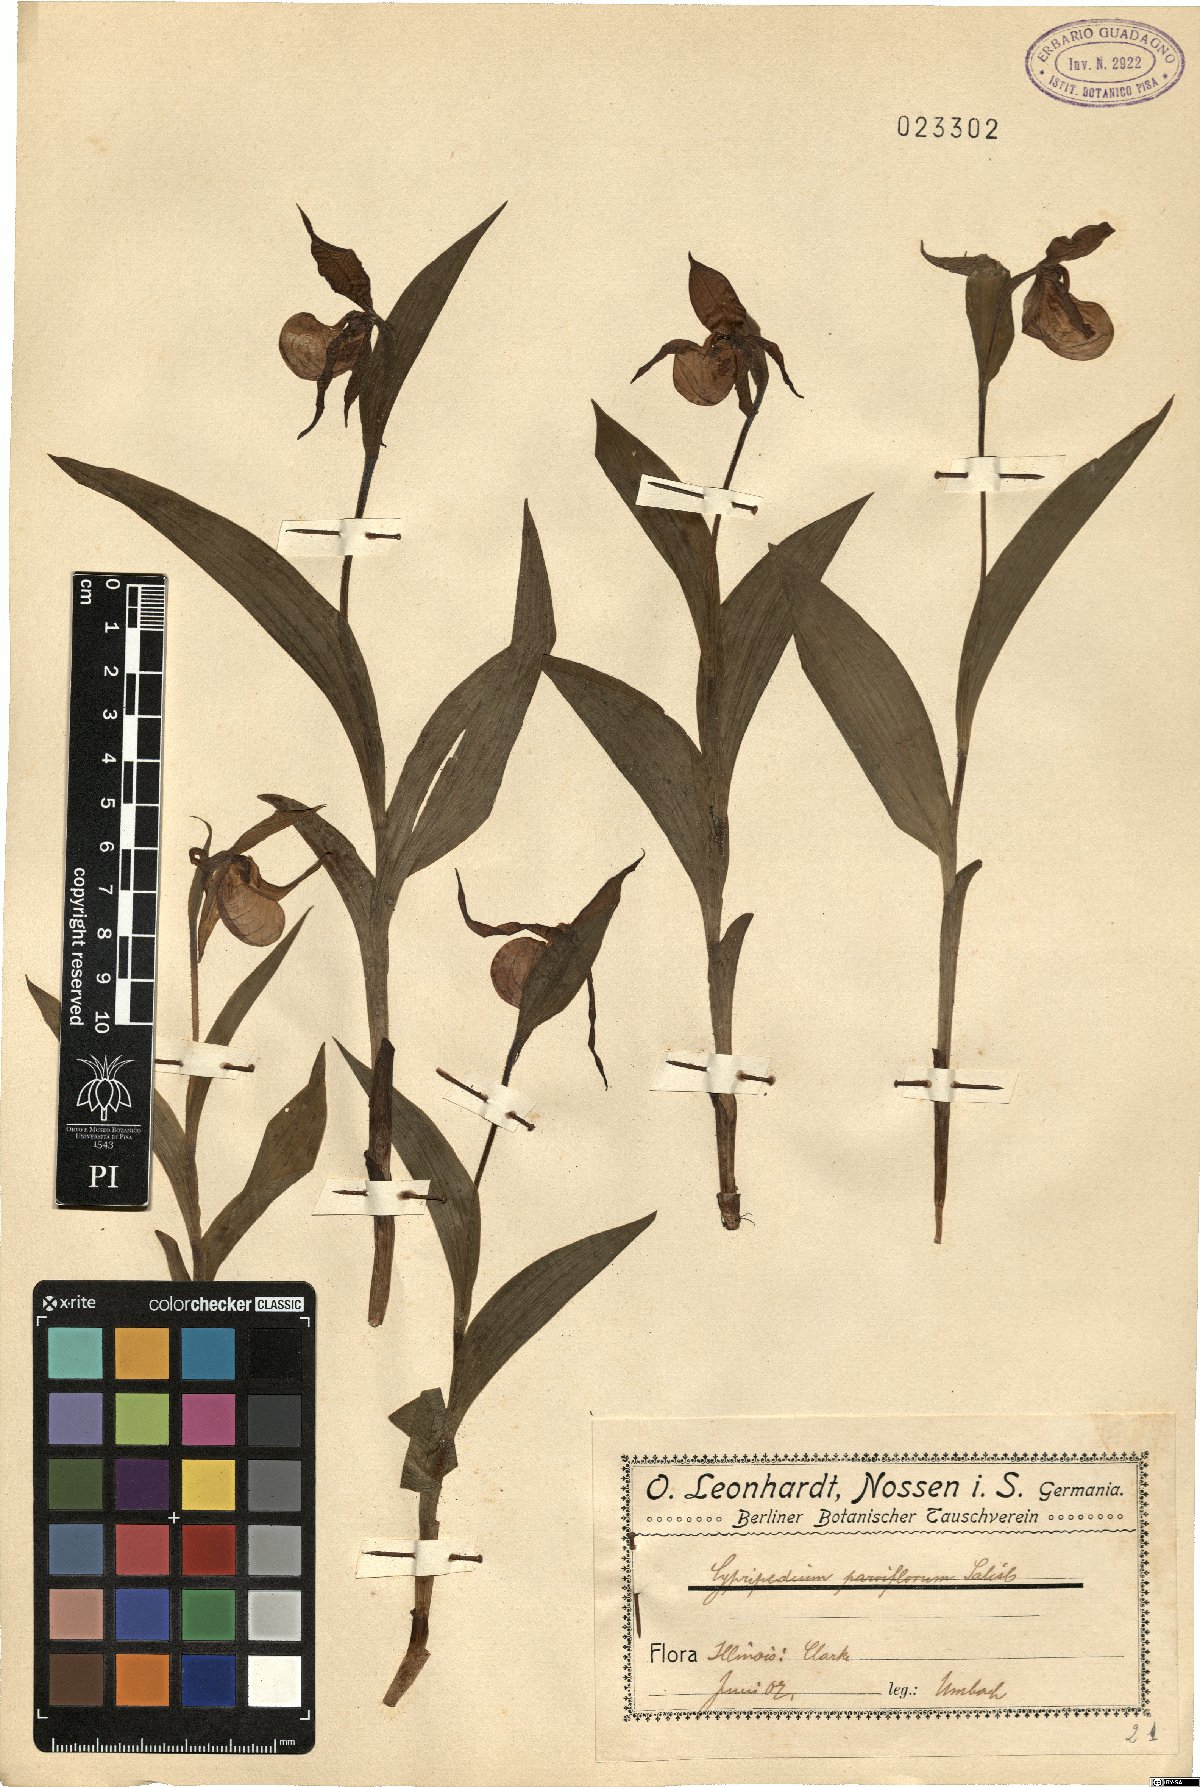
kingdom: Plantae
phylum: Tracheophyta
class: Liliopsida
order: Asparagales
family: Orchidaceae
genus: Cypripedium
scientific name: Cypripedium parviflorum
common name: American yellow lady's-slipper
